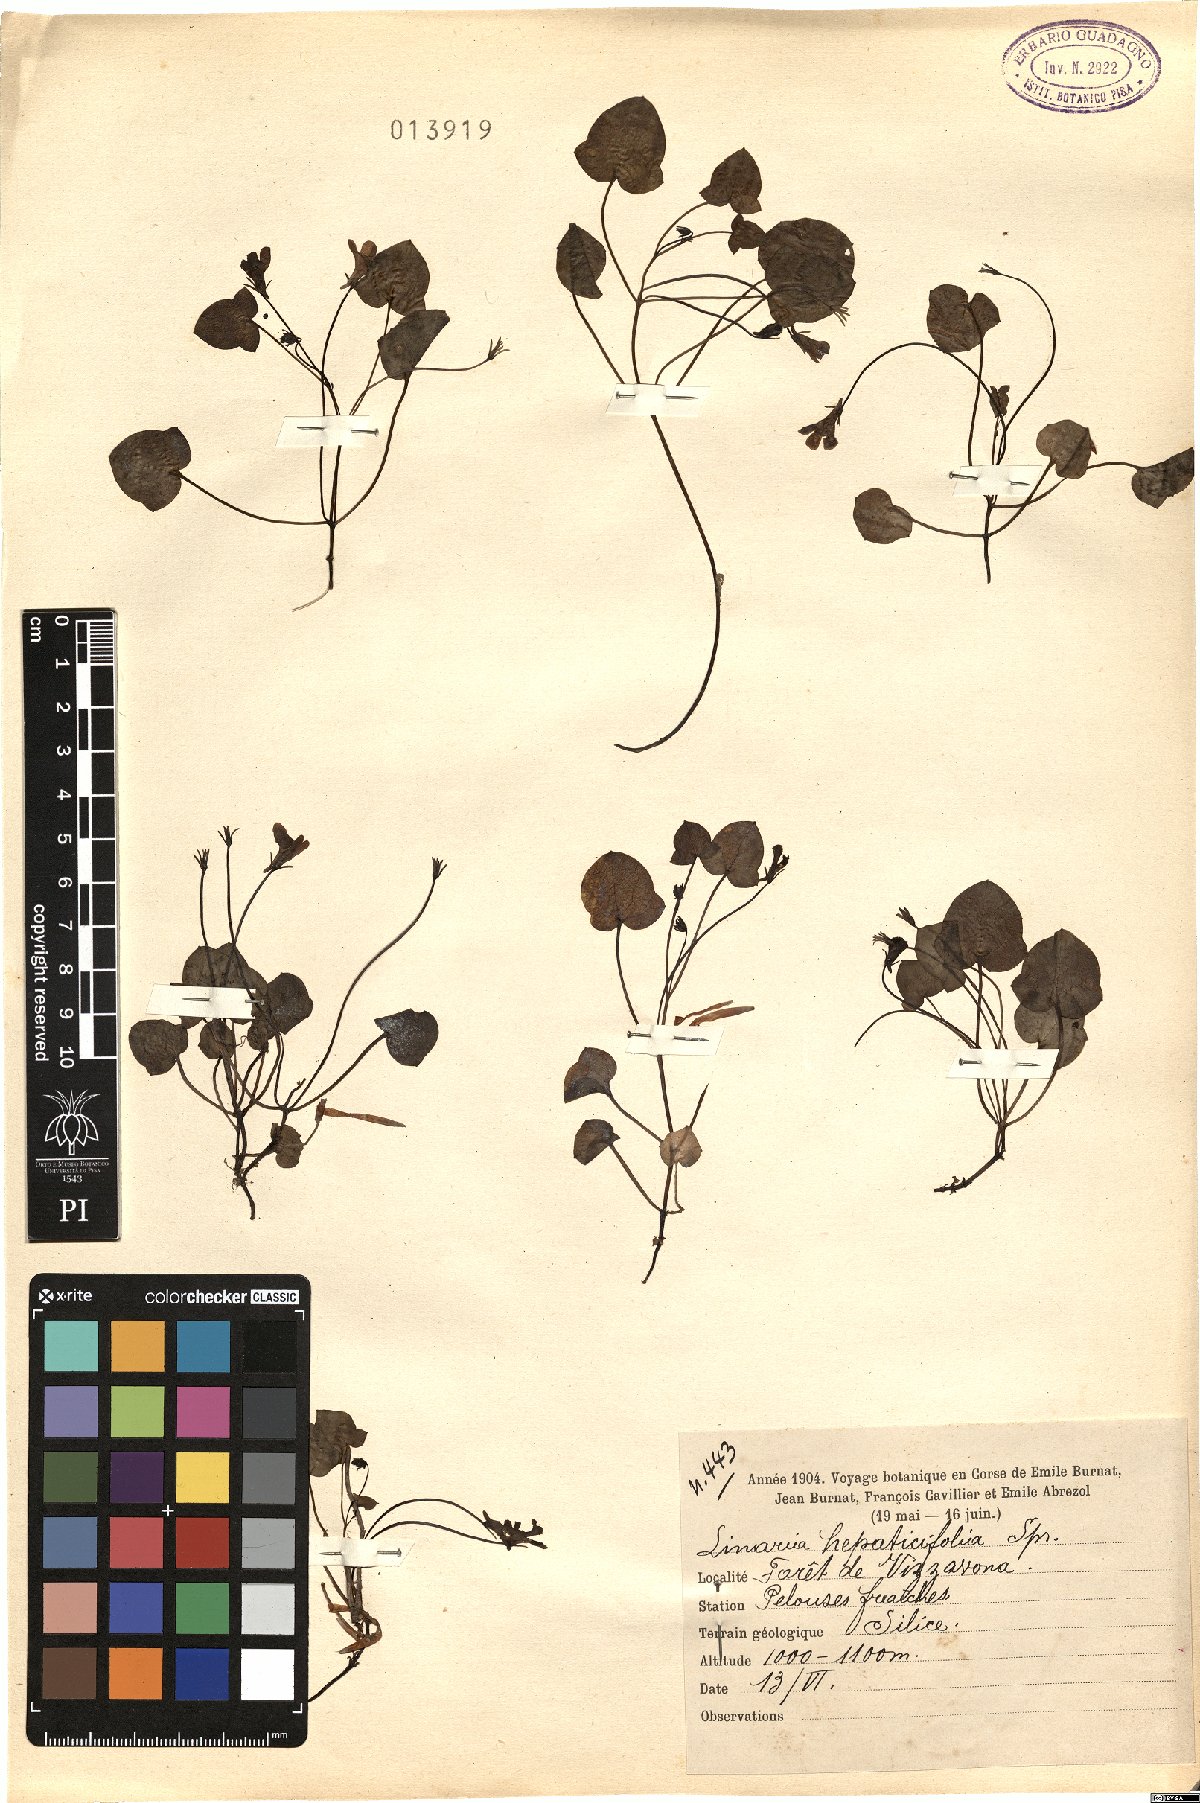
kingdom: Plantae
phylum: Tracheophyta
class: Magnoliopsida
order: Lamiales
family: Plantaginaceae
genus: Cymbalaria
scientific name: Cymbalaria hepaticifolia
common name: Corsican toadflax
